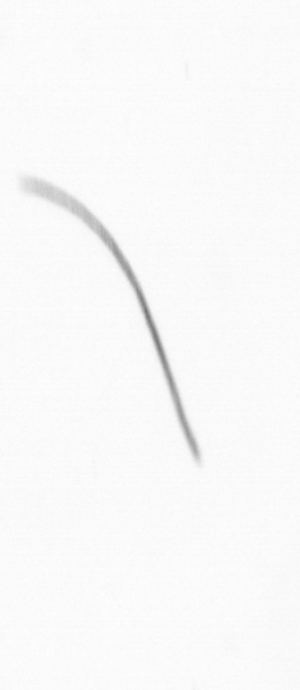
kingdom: Chromista
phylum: Ochrophyta
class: Bacillariophyceae
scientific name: Bacillariophyceae
